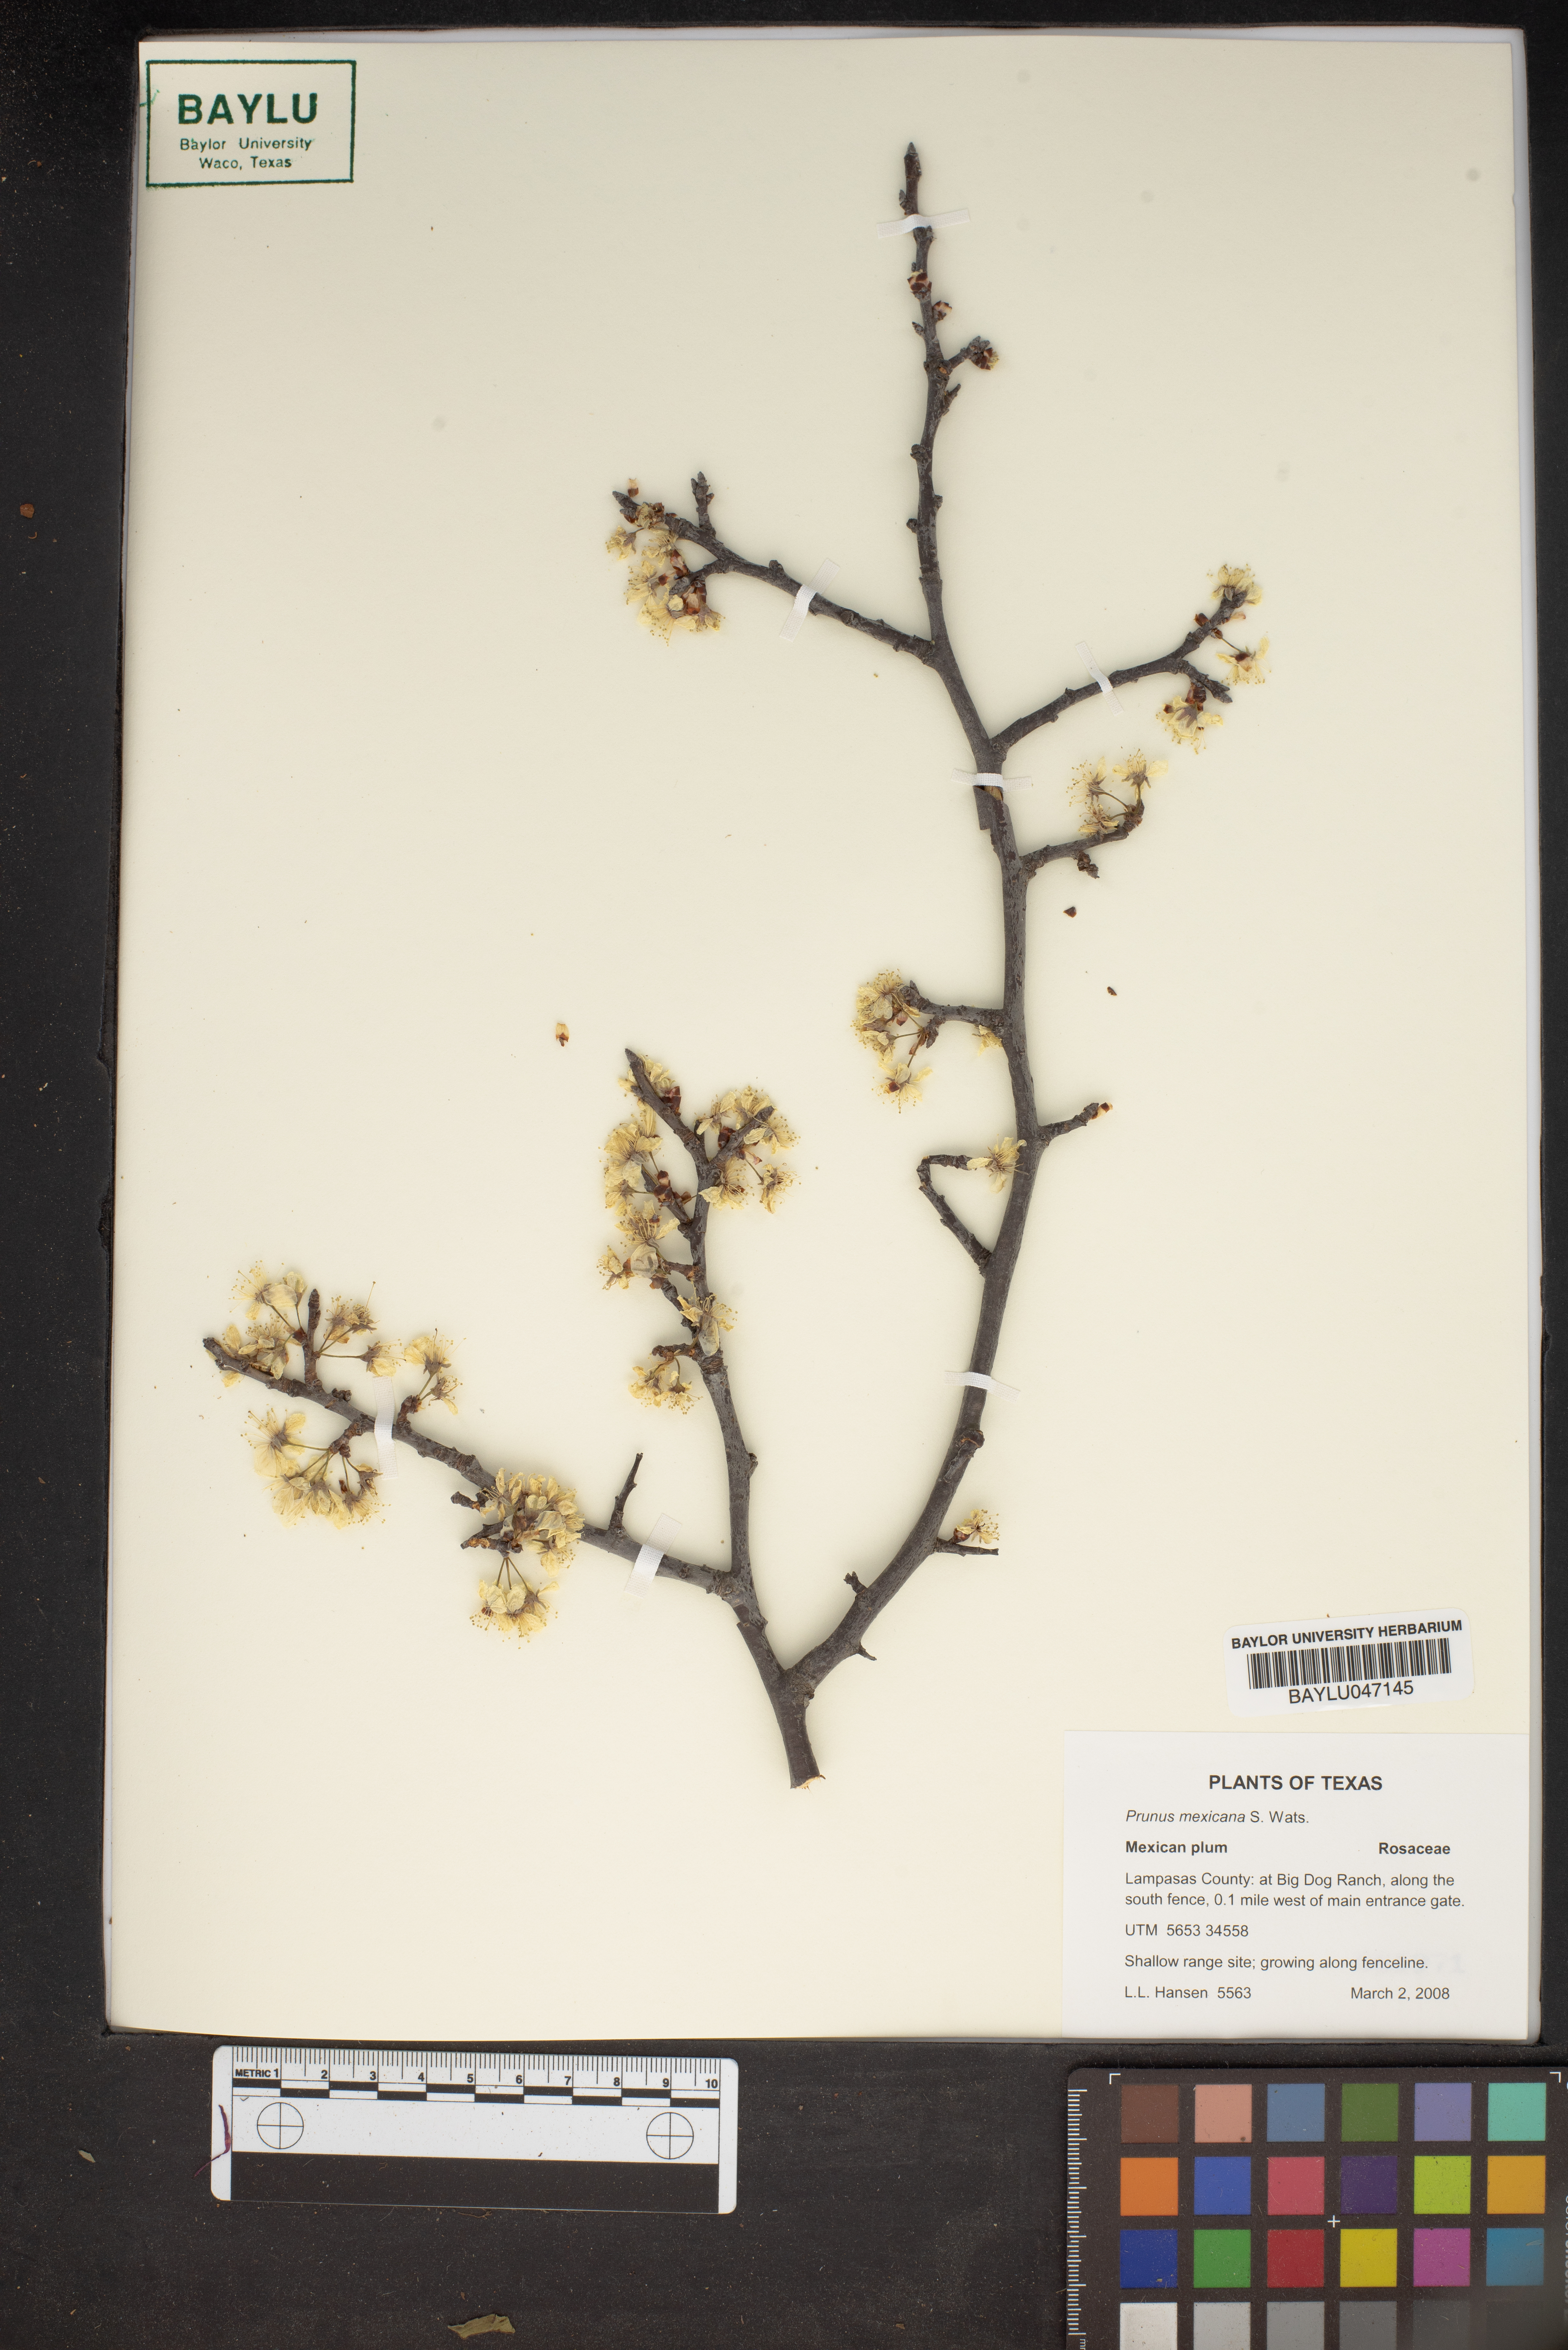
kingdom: Plantae
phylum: Tracheophyta
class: Magnoliopsida
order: Rosales
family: Rosaceae
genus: Prunus
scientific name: Prunus mexicana
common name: Mexican plum
